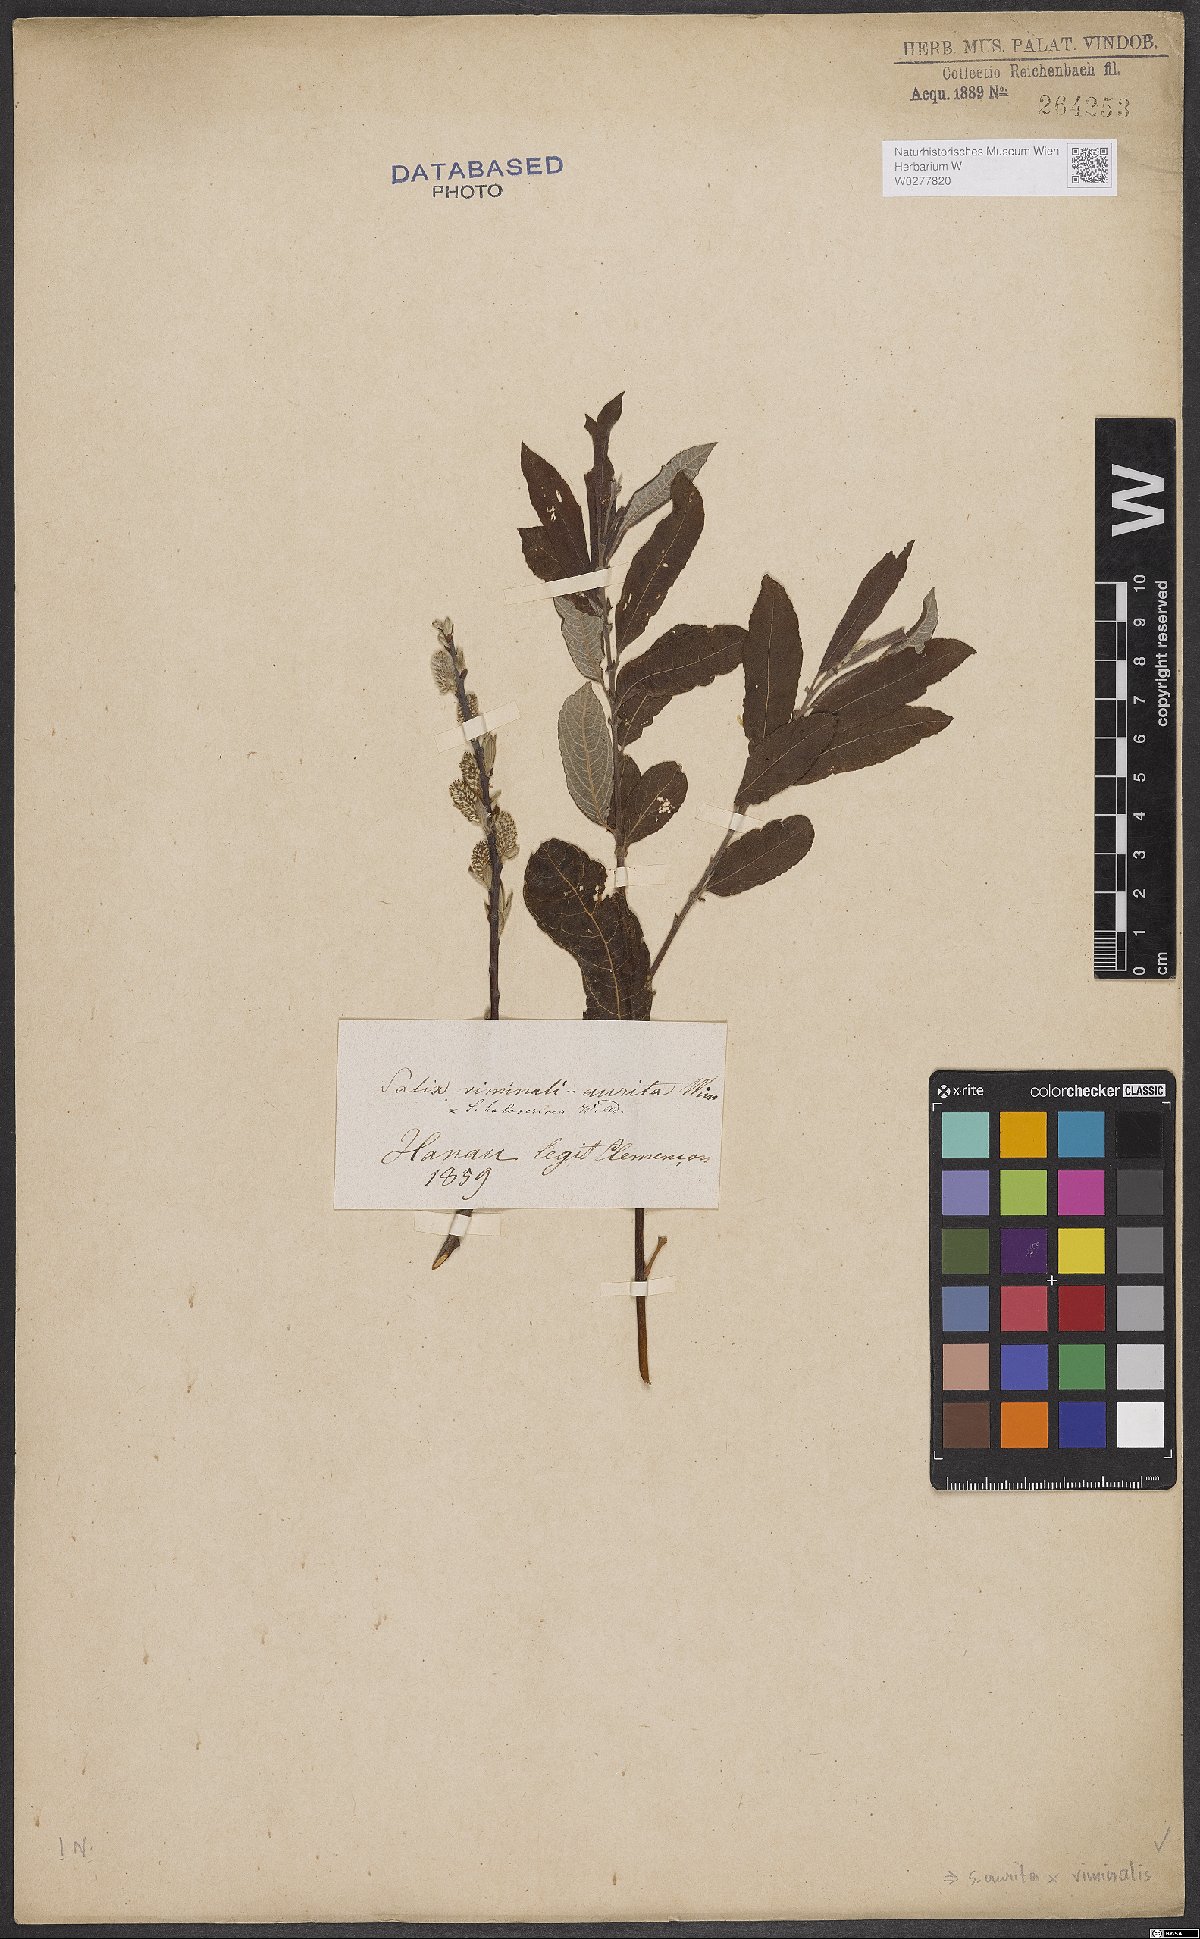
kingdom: Plantae
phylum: Tracheophyta
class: Magnoliopsida
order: Malpighiales
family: Salicaceae
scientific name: Salicaceae
